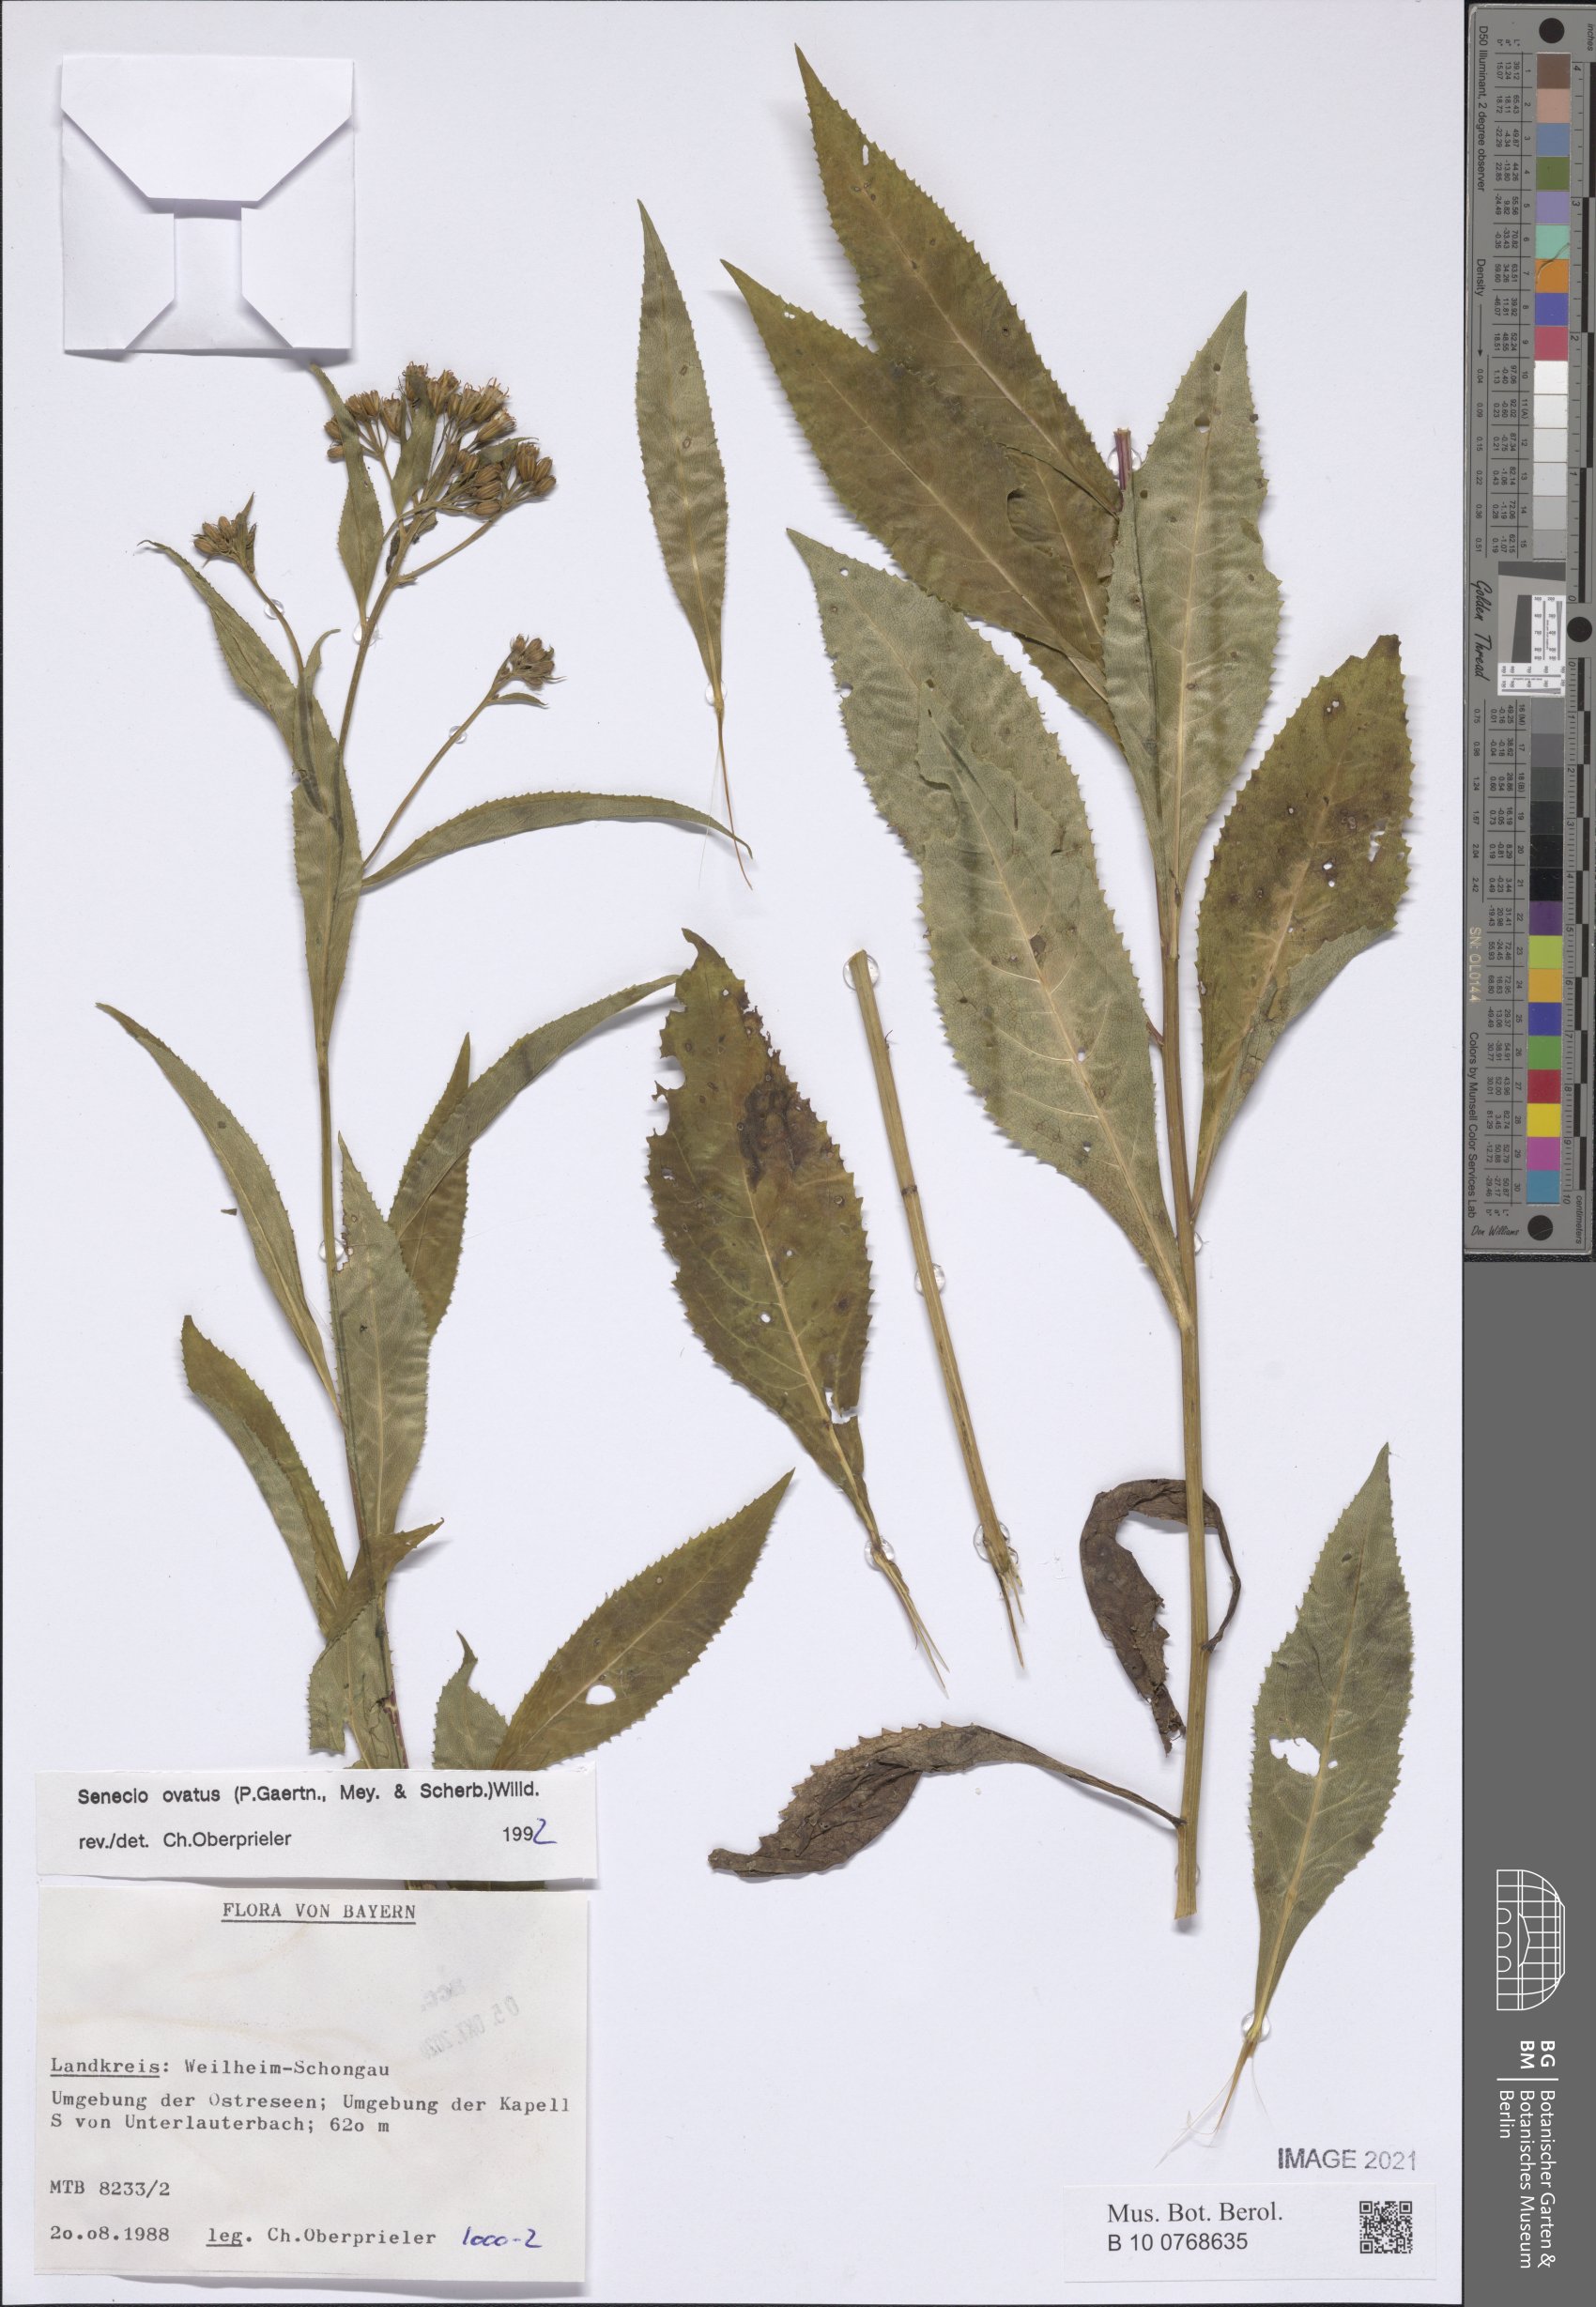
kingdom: Plantae
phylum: Tracheophyta
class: Magnoliopsida
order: Asterales
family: Asteraceae
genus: Senecio
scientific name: Senecio ovatus
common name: Wood ragwort
